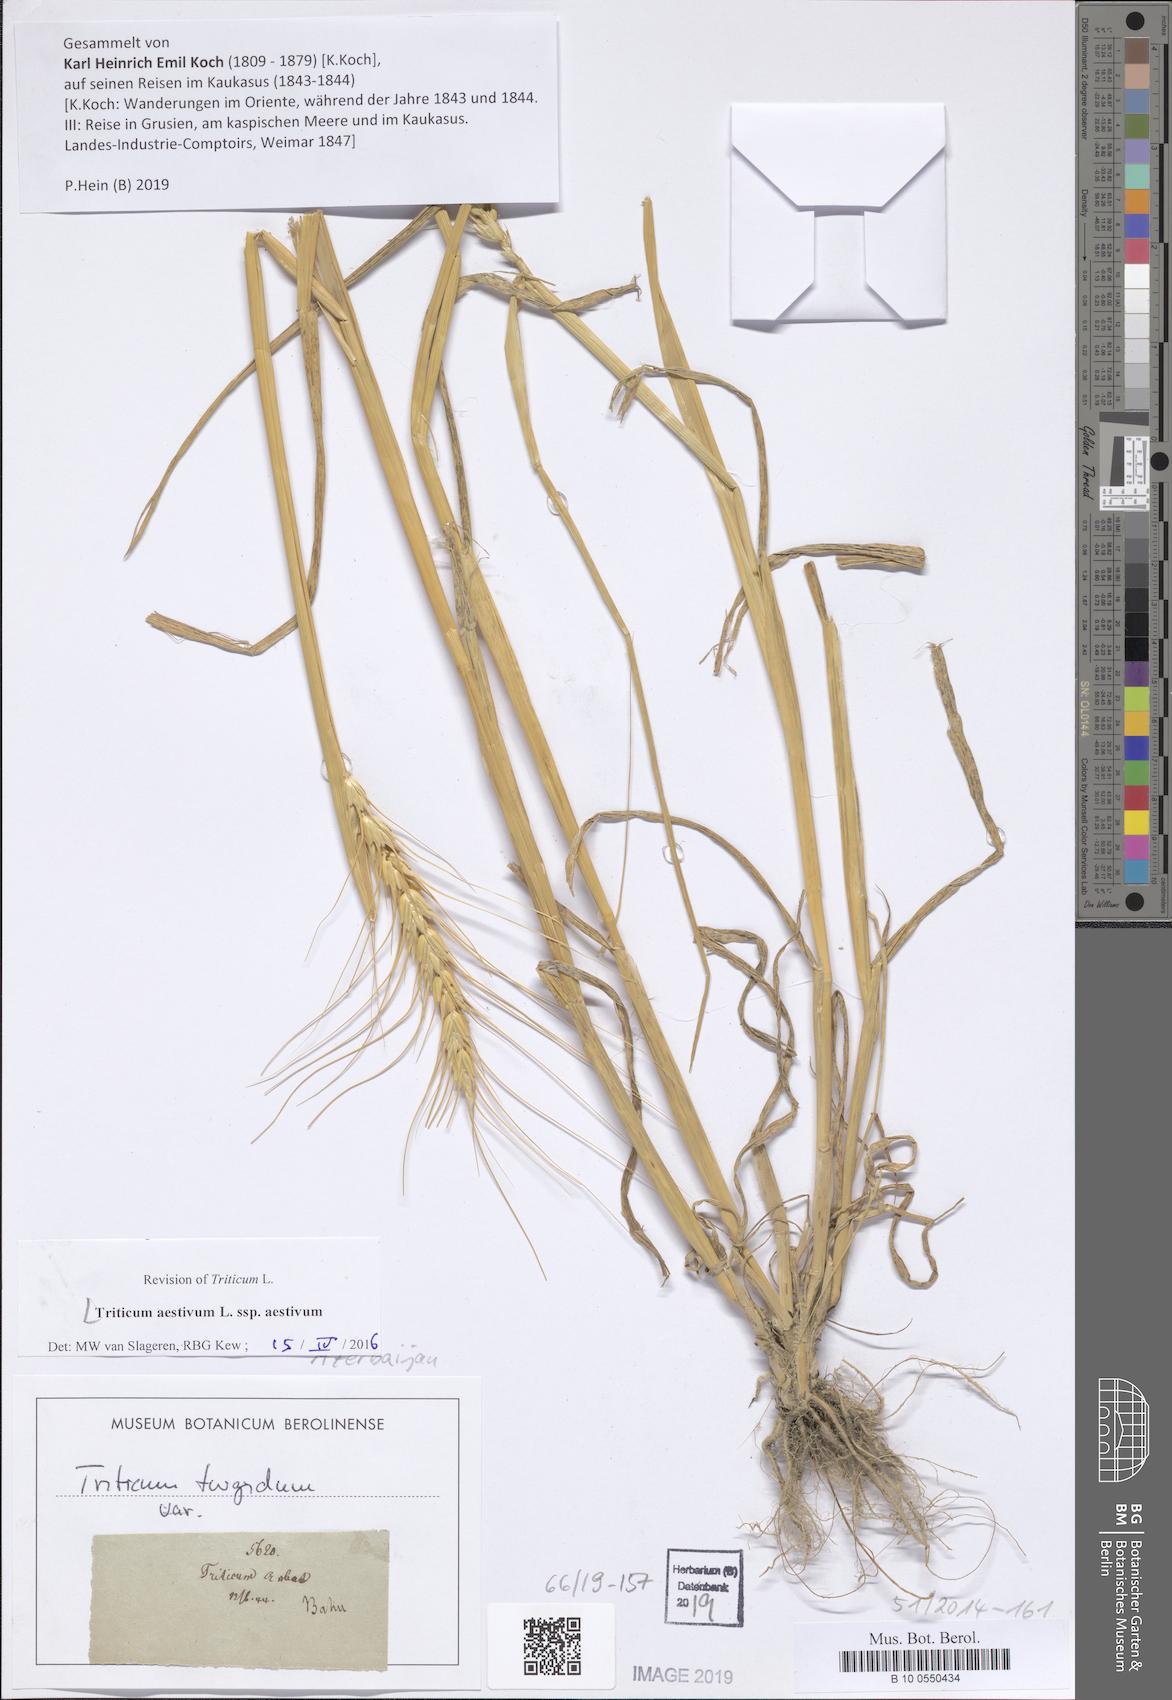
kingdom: Plantae
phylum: Tracheophyta
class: Liliopsida
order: Poales
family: Poaceae
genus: Triticum
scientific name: Triticum aestivum
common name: Common wheat
